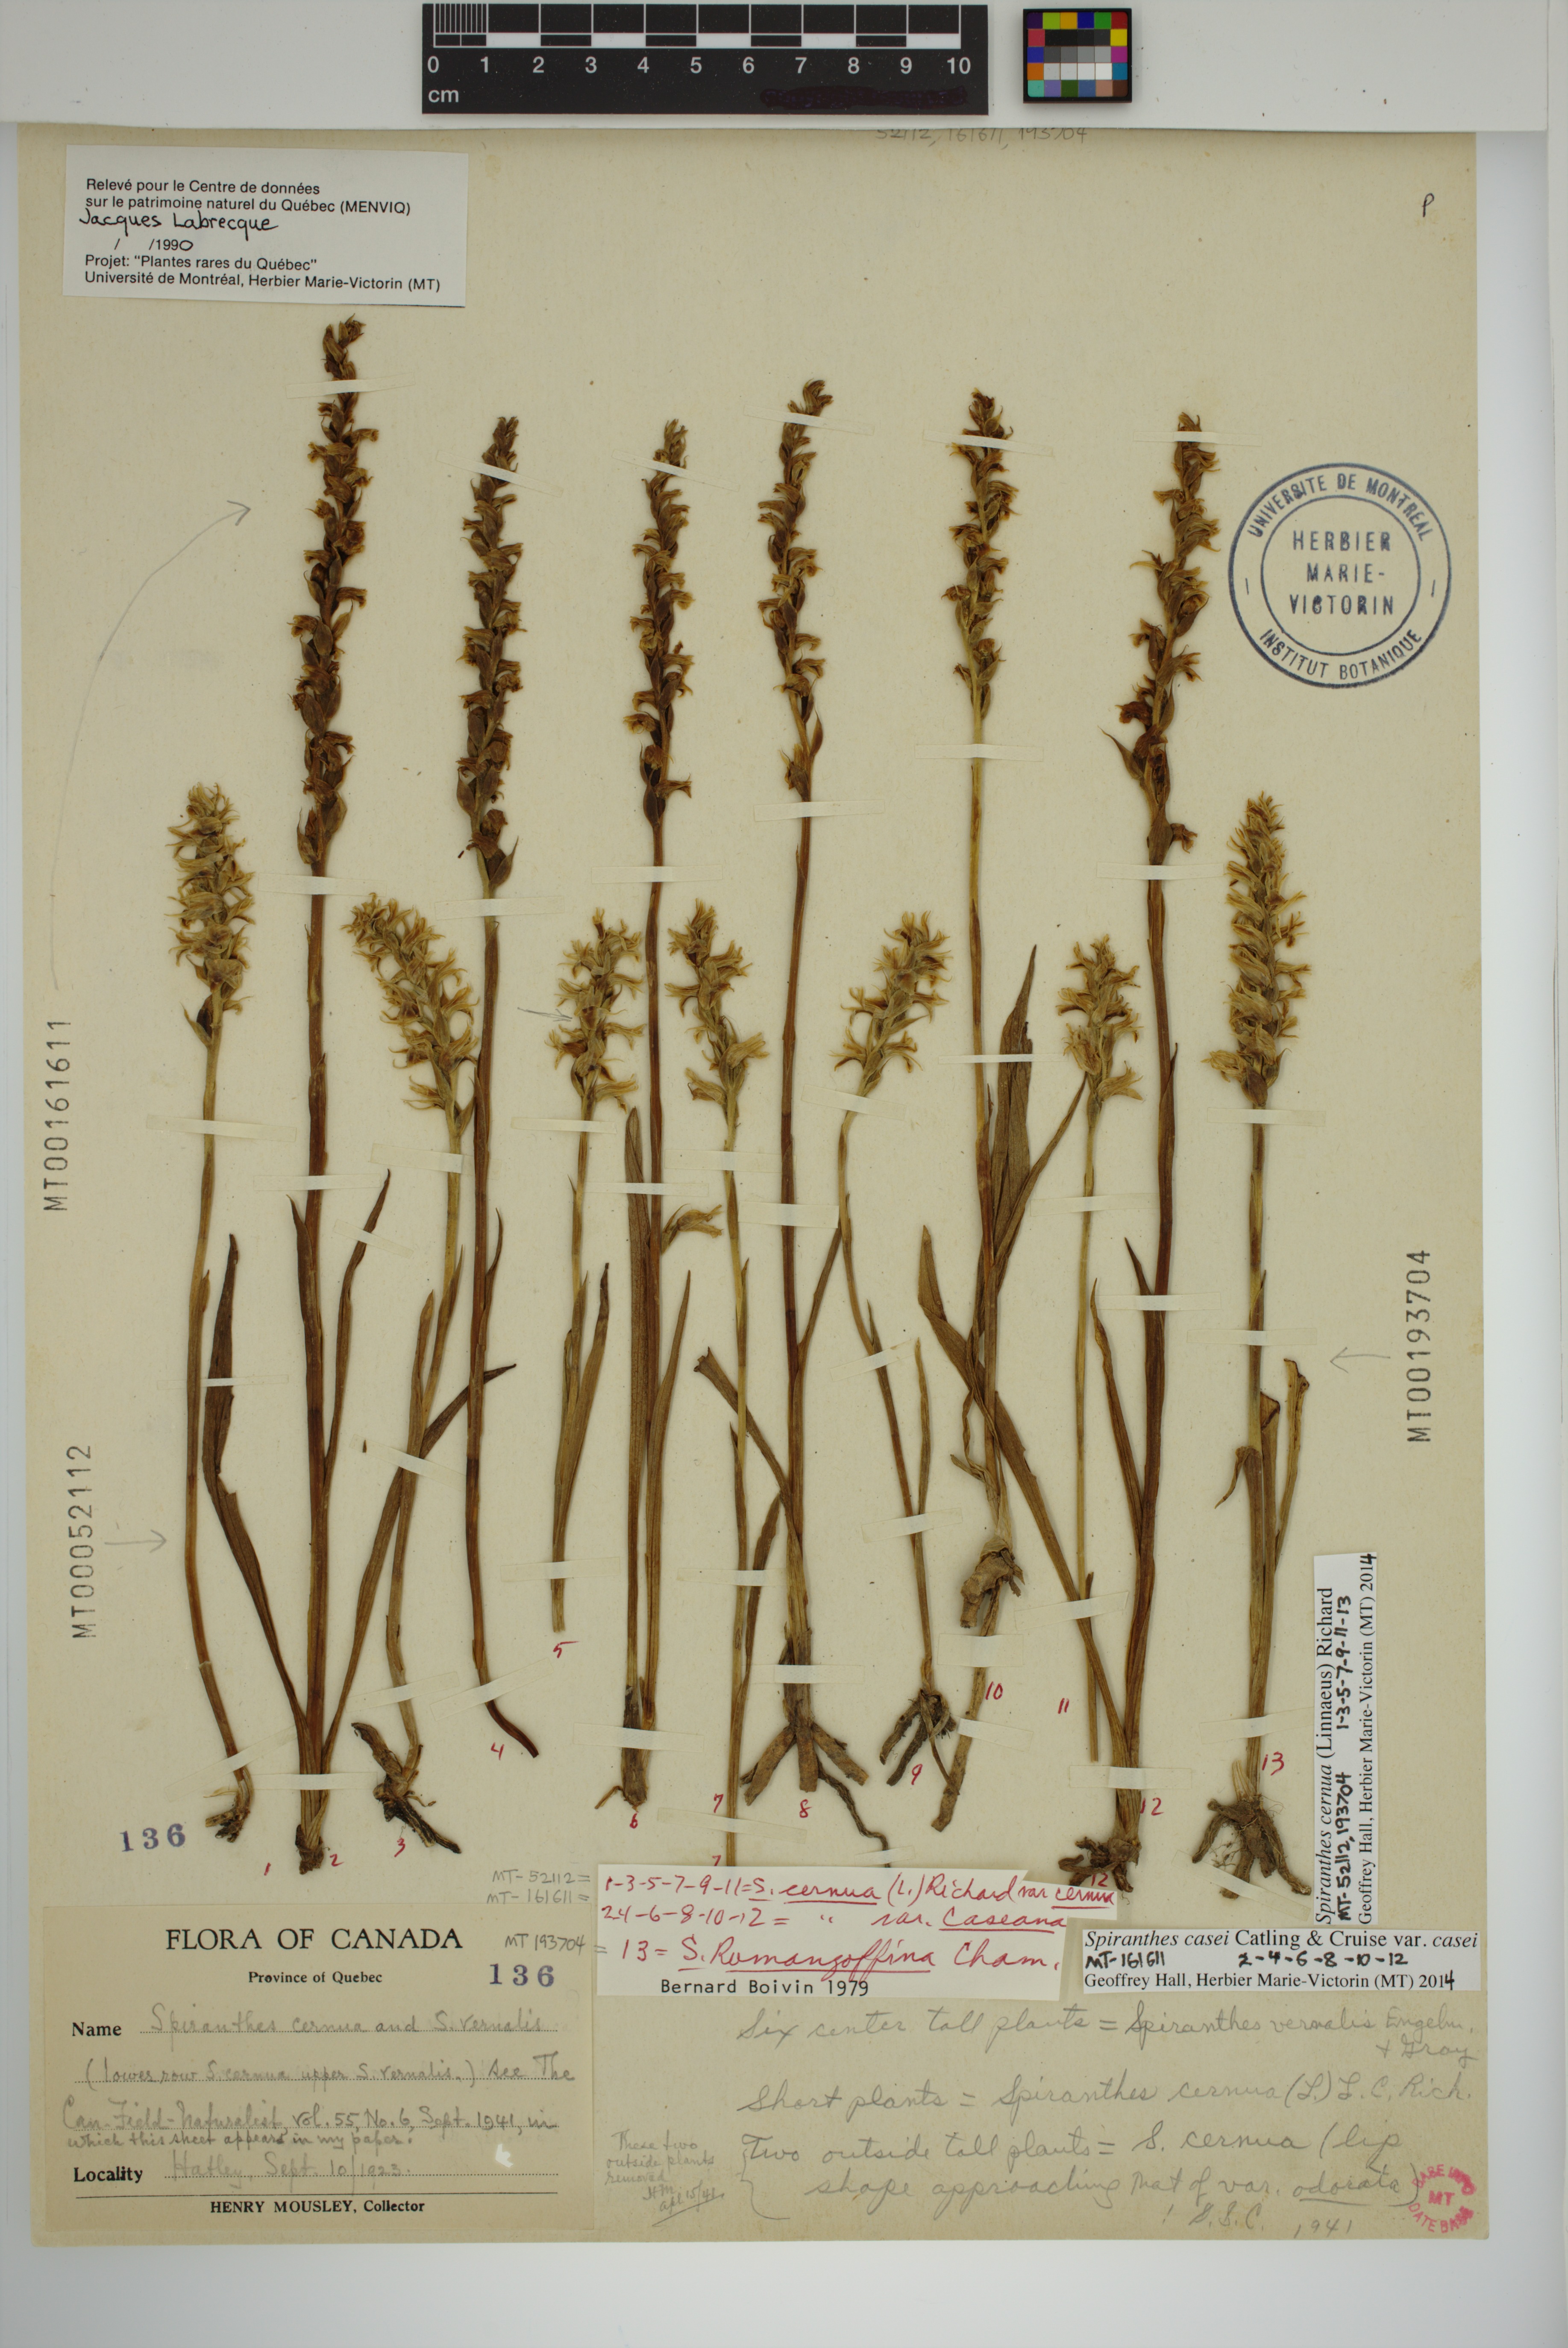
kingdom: Plantae
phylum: Tracheophyta
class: Liliopsida
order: Asparagales
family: Orchidaceae
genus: Spiranthes
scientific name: Spiranthes cernua
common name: Dropping ladies'-tresses
